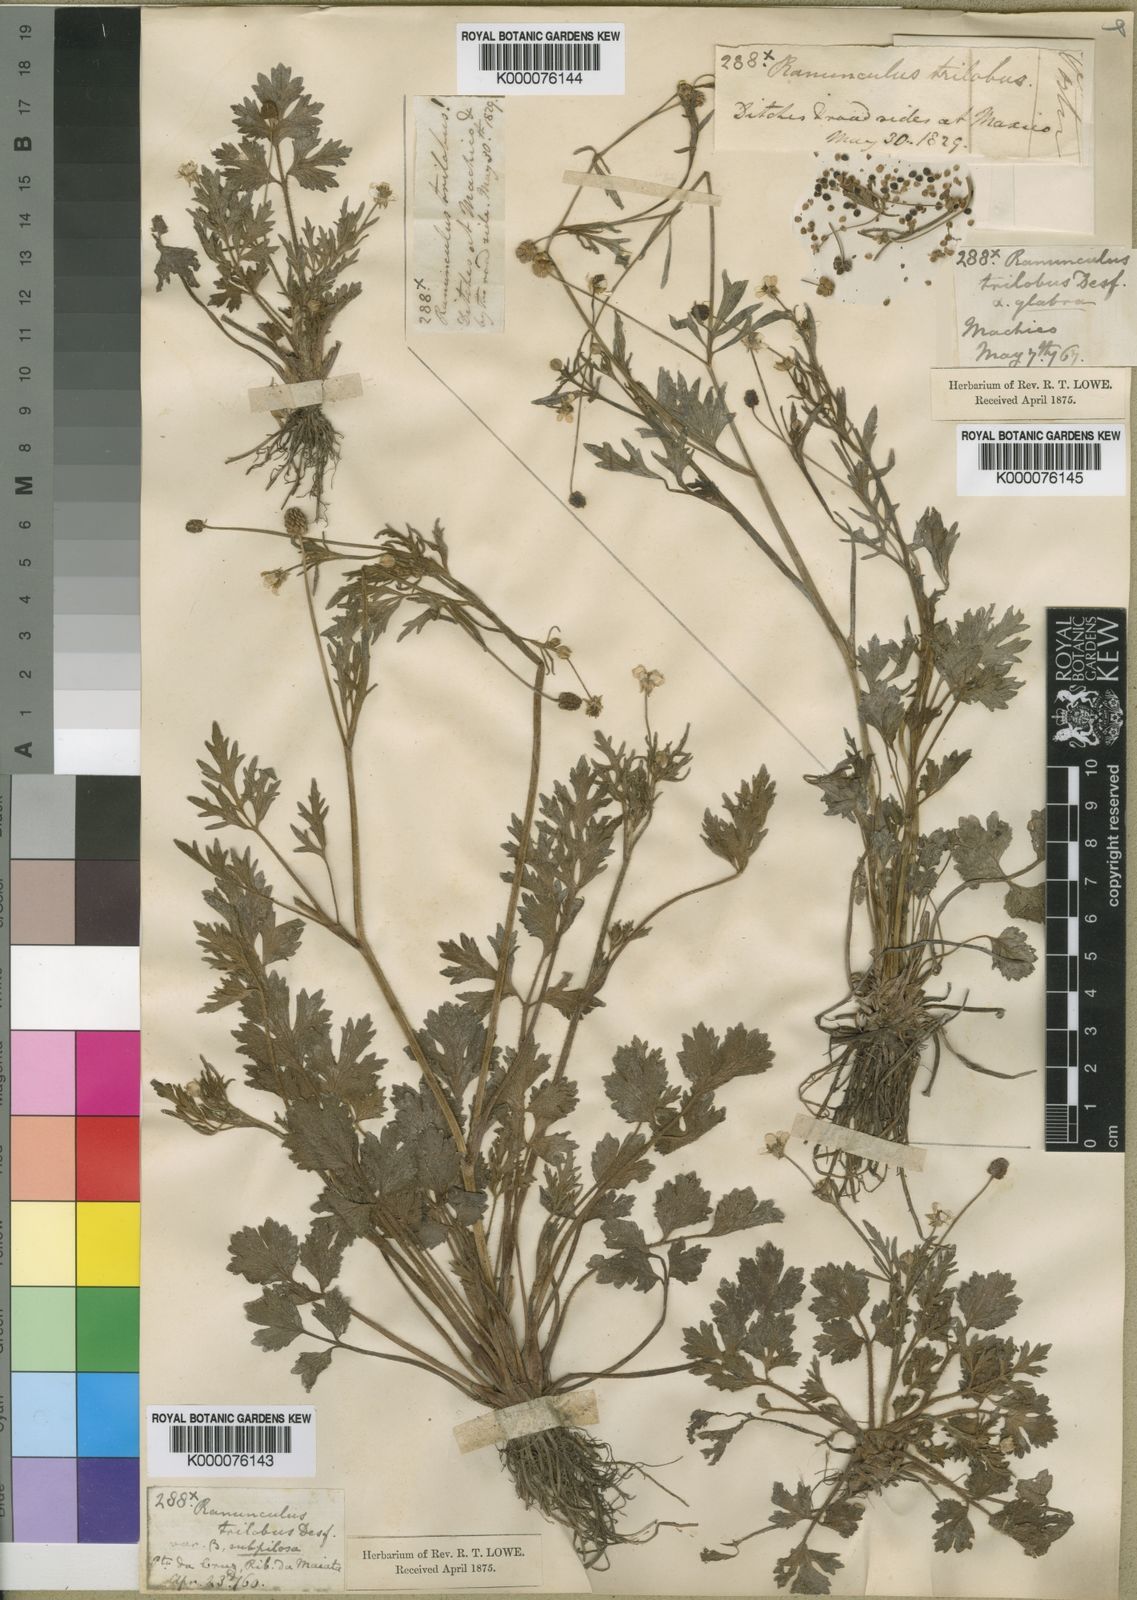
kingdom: Plantae
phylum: Tracheophyta
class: Magnoliopsida
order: Ranunculales
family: Ranunculaceae
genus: Ranunculus
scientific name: Ranunculus trilobus
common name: Threelobe buttercup
